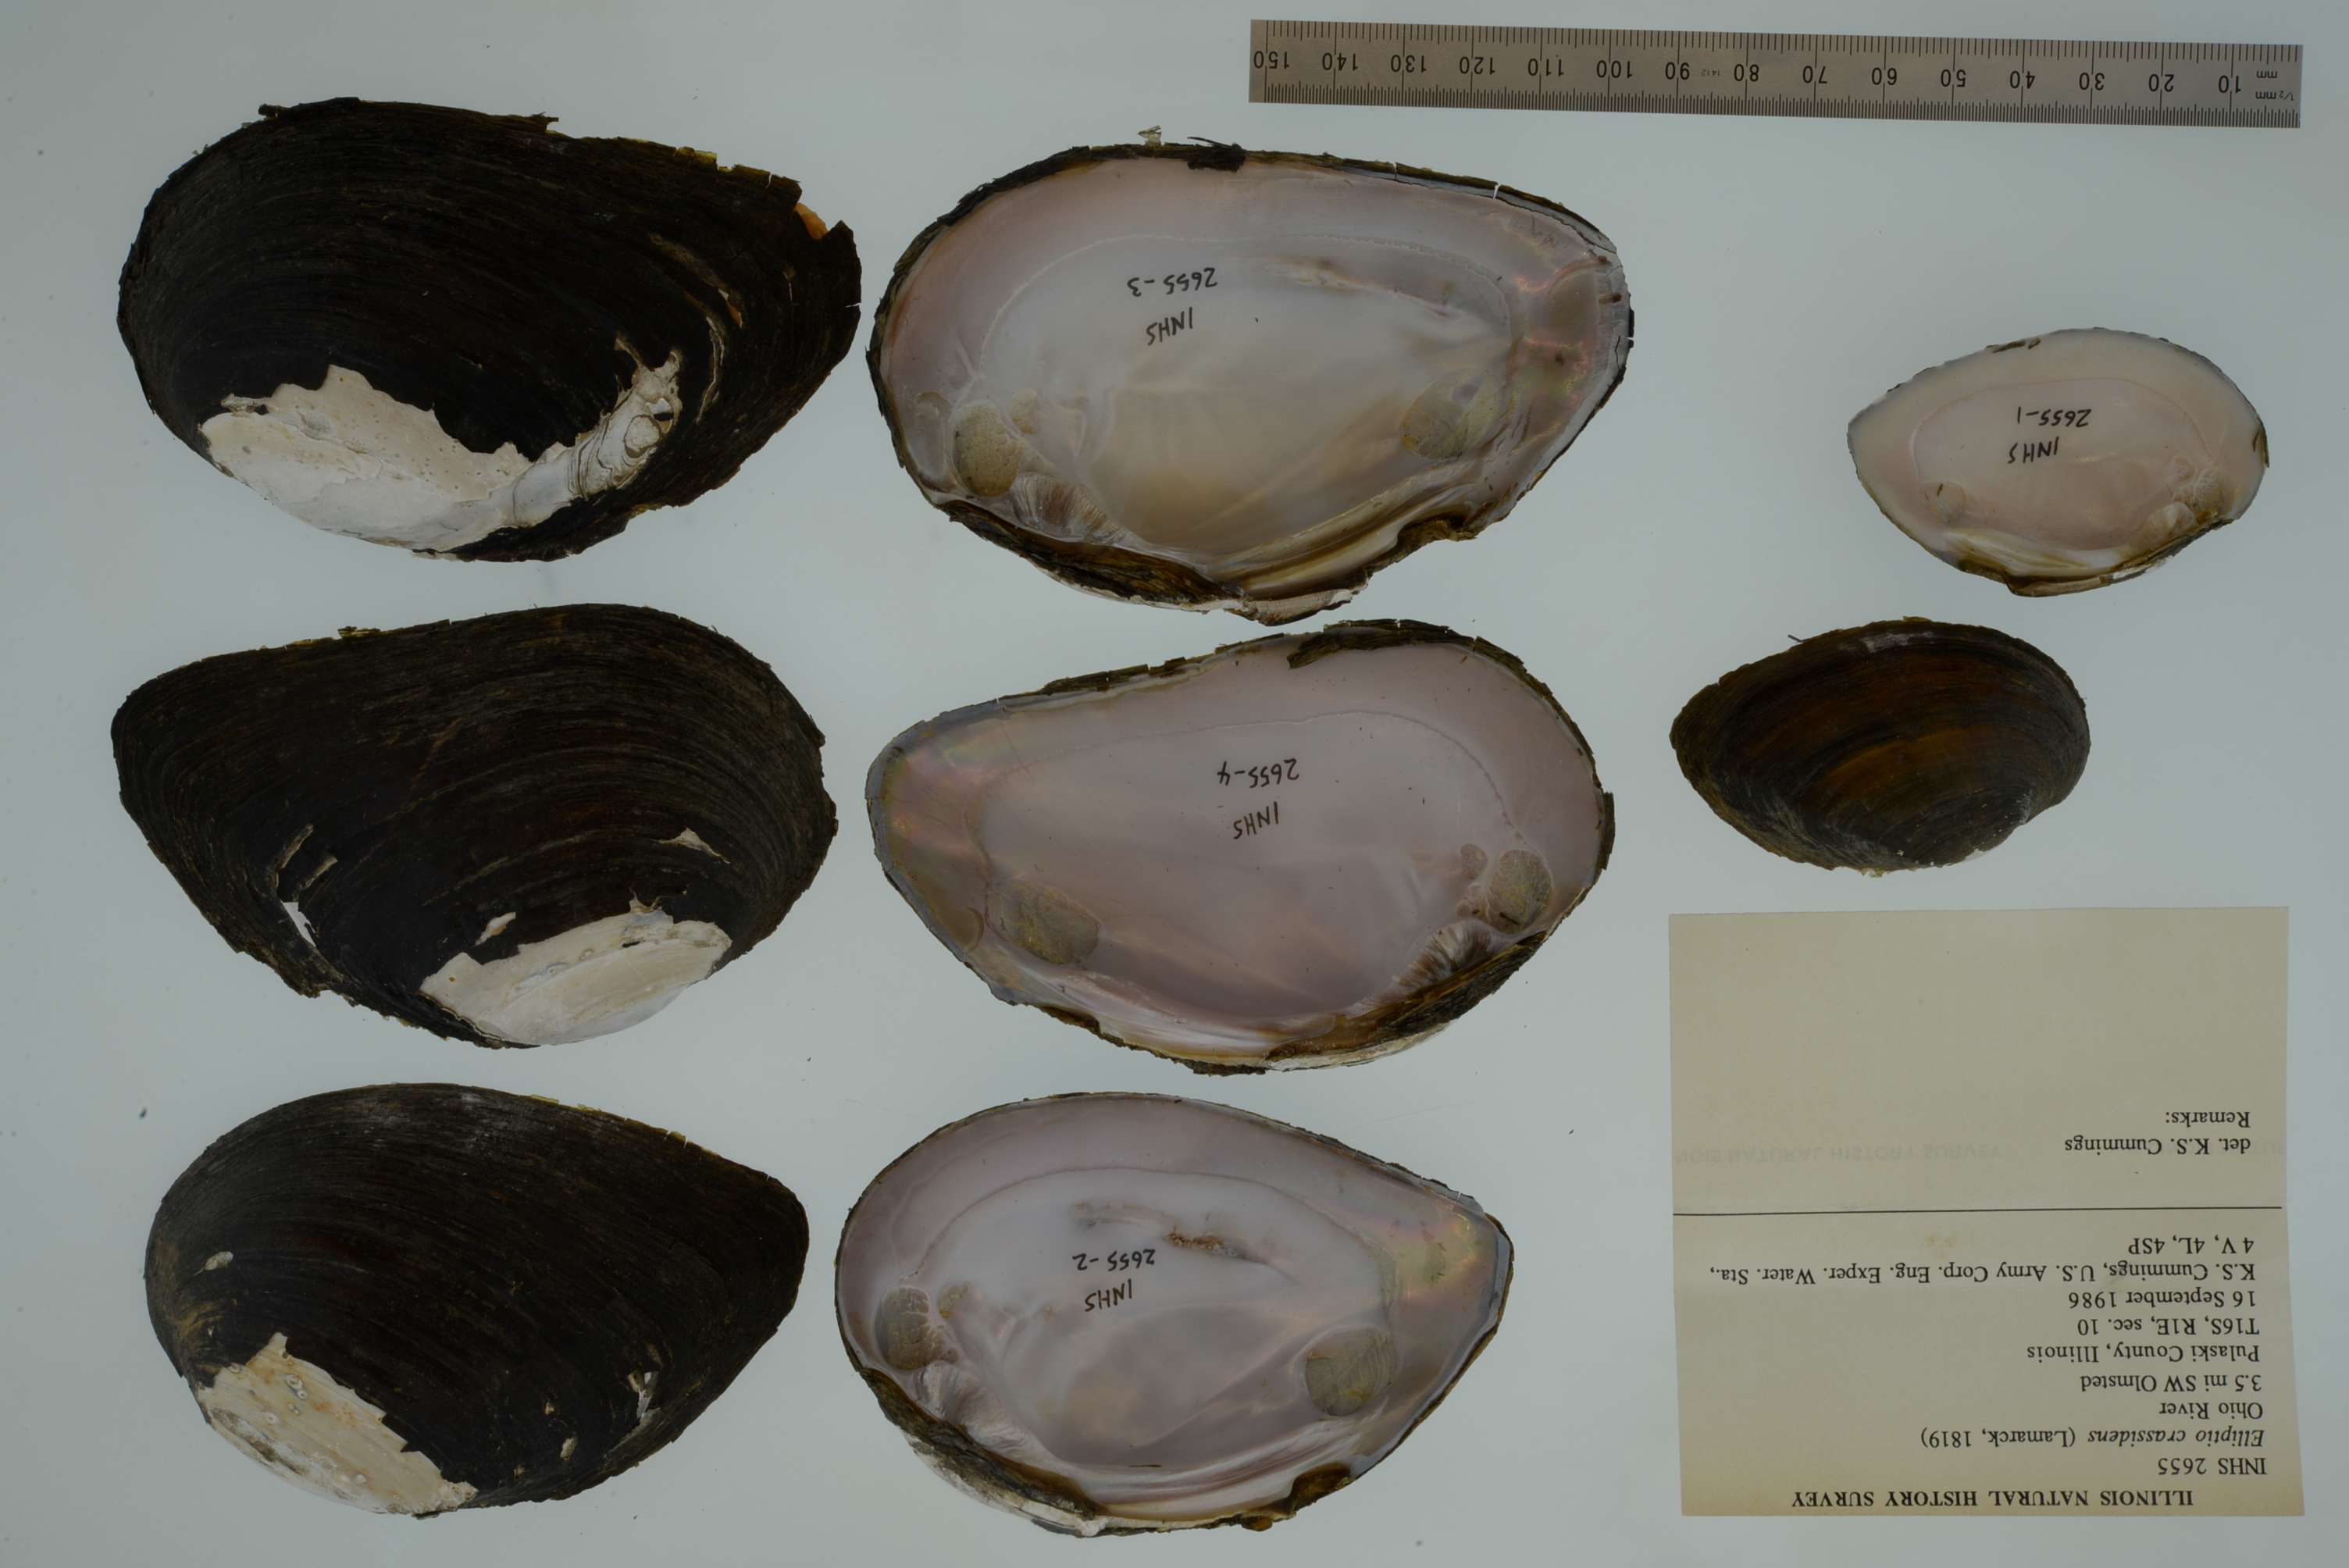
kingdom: Animalia
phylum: Mollusca
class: Bivalvia
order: Unionida
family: Unionidae
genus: Elliptio
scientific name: Elliptio crassidens
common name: Blue ham
